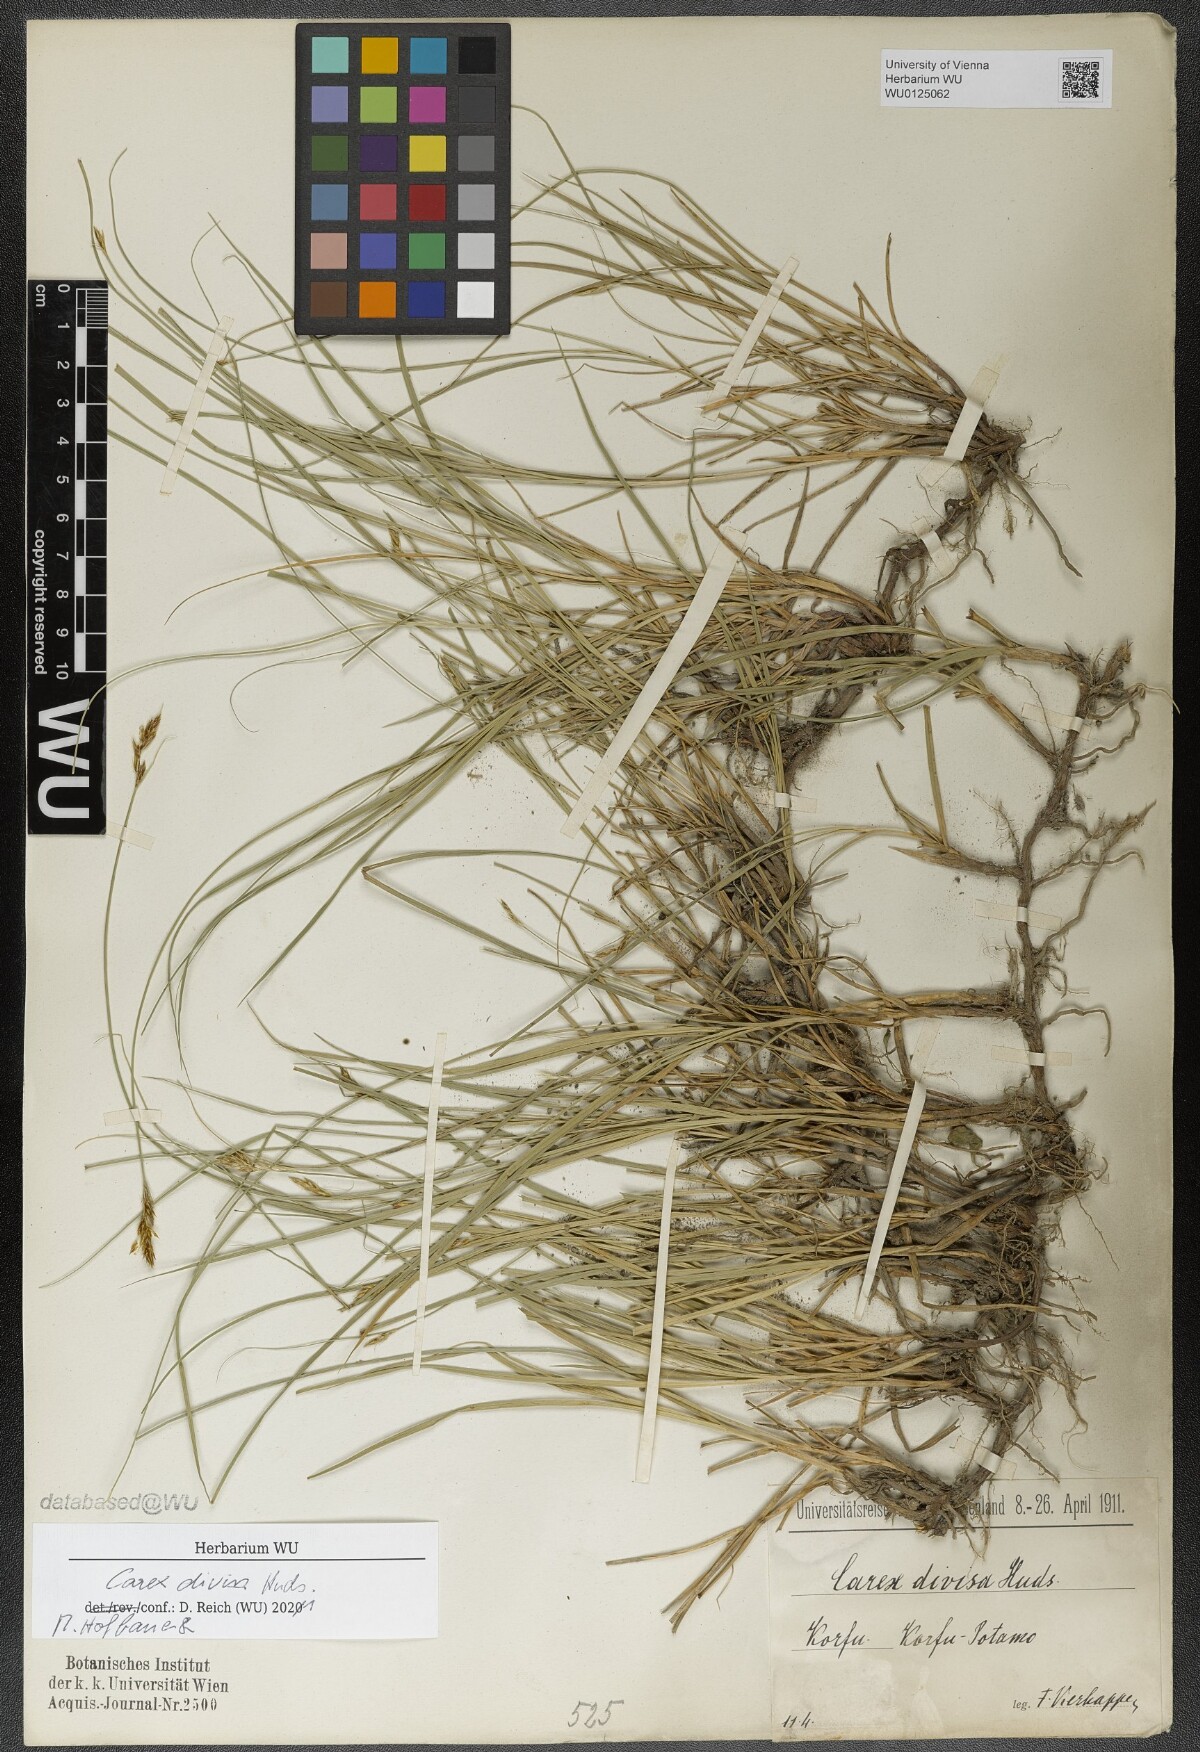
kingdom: Plantae
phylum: Tracheophyta
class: Liliopsida
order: Poales
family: Cyperaceae
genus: Carex
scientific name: Carex divisa
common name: Divided sedge
